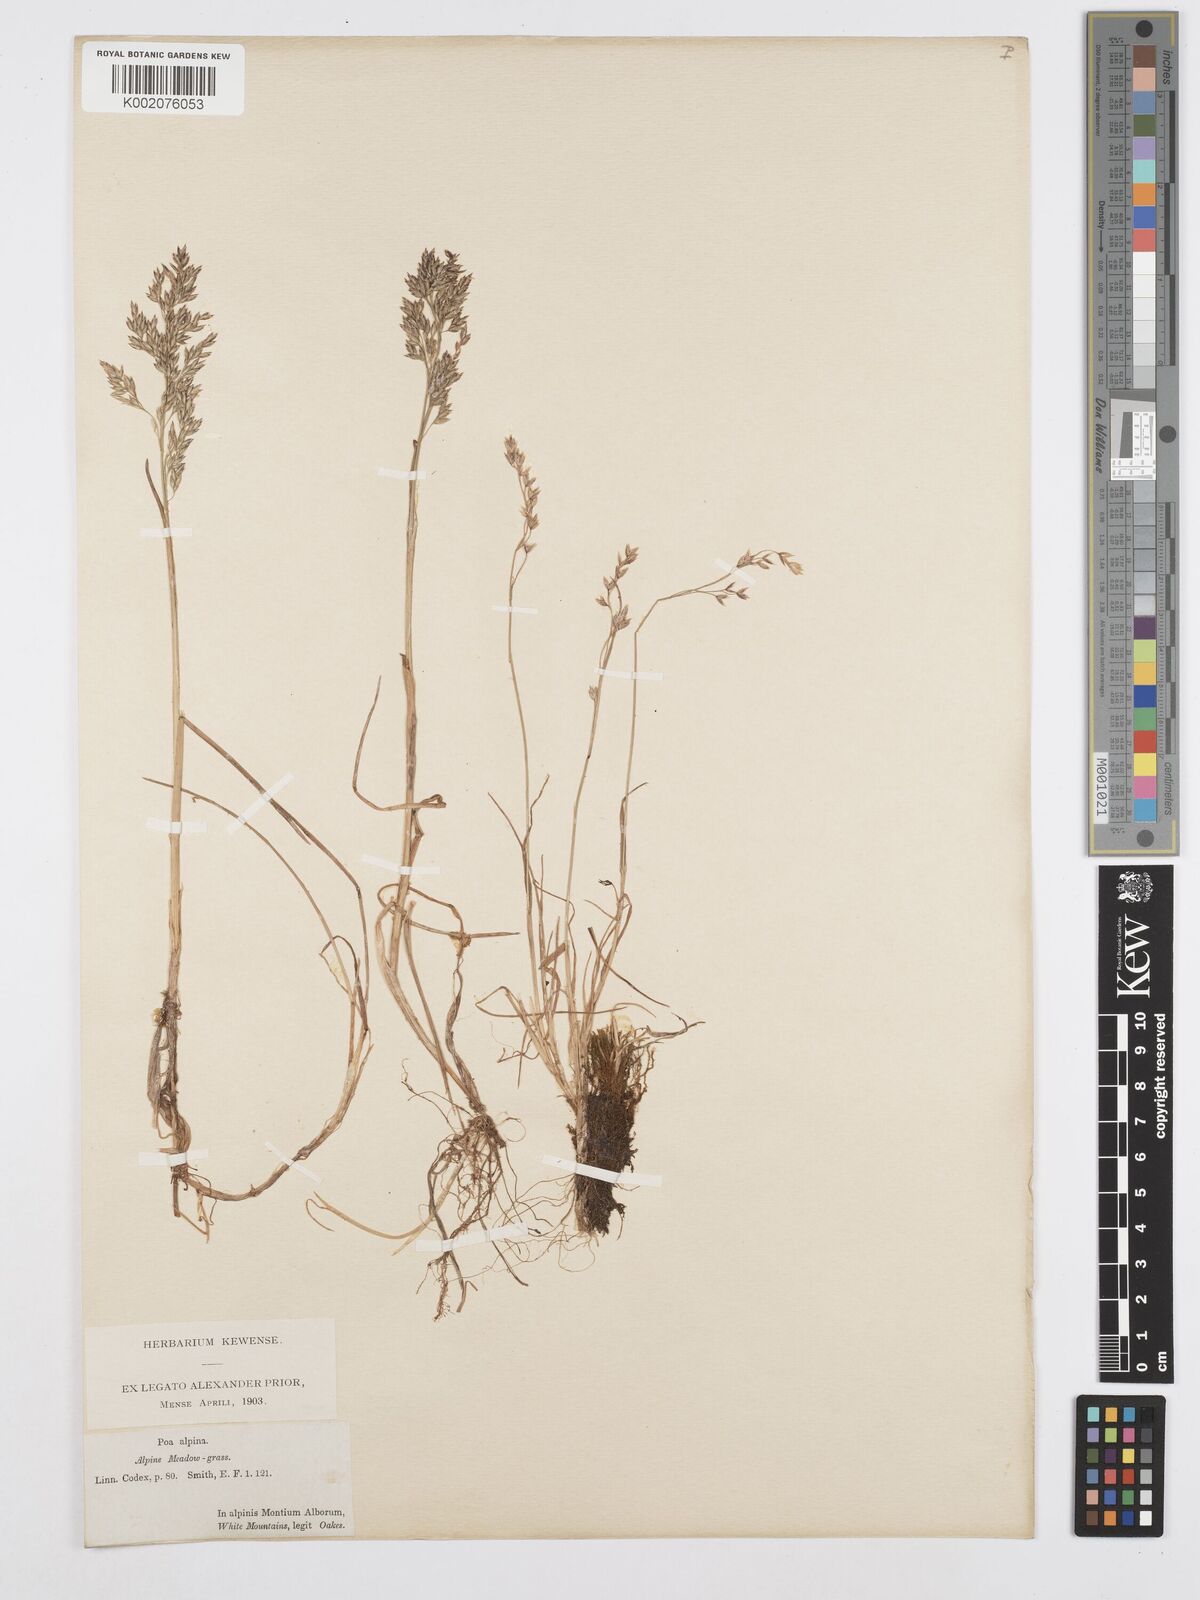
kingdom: Plantae
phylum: Tracheophyta
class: Liliopsida
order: Poales
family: Poaceae
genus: Poa
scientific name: Poa alpina
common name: Alpine bluegrass
